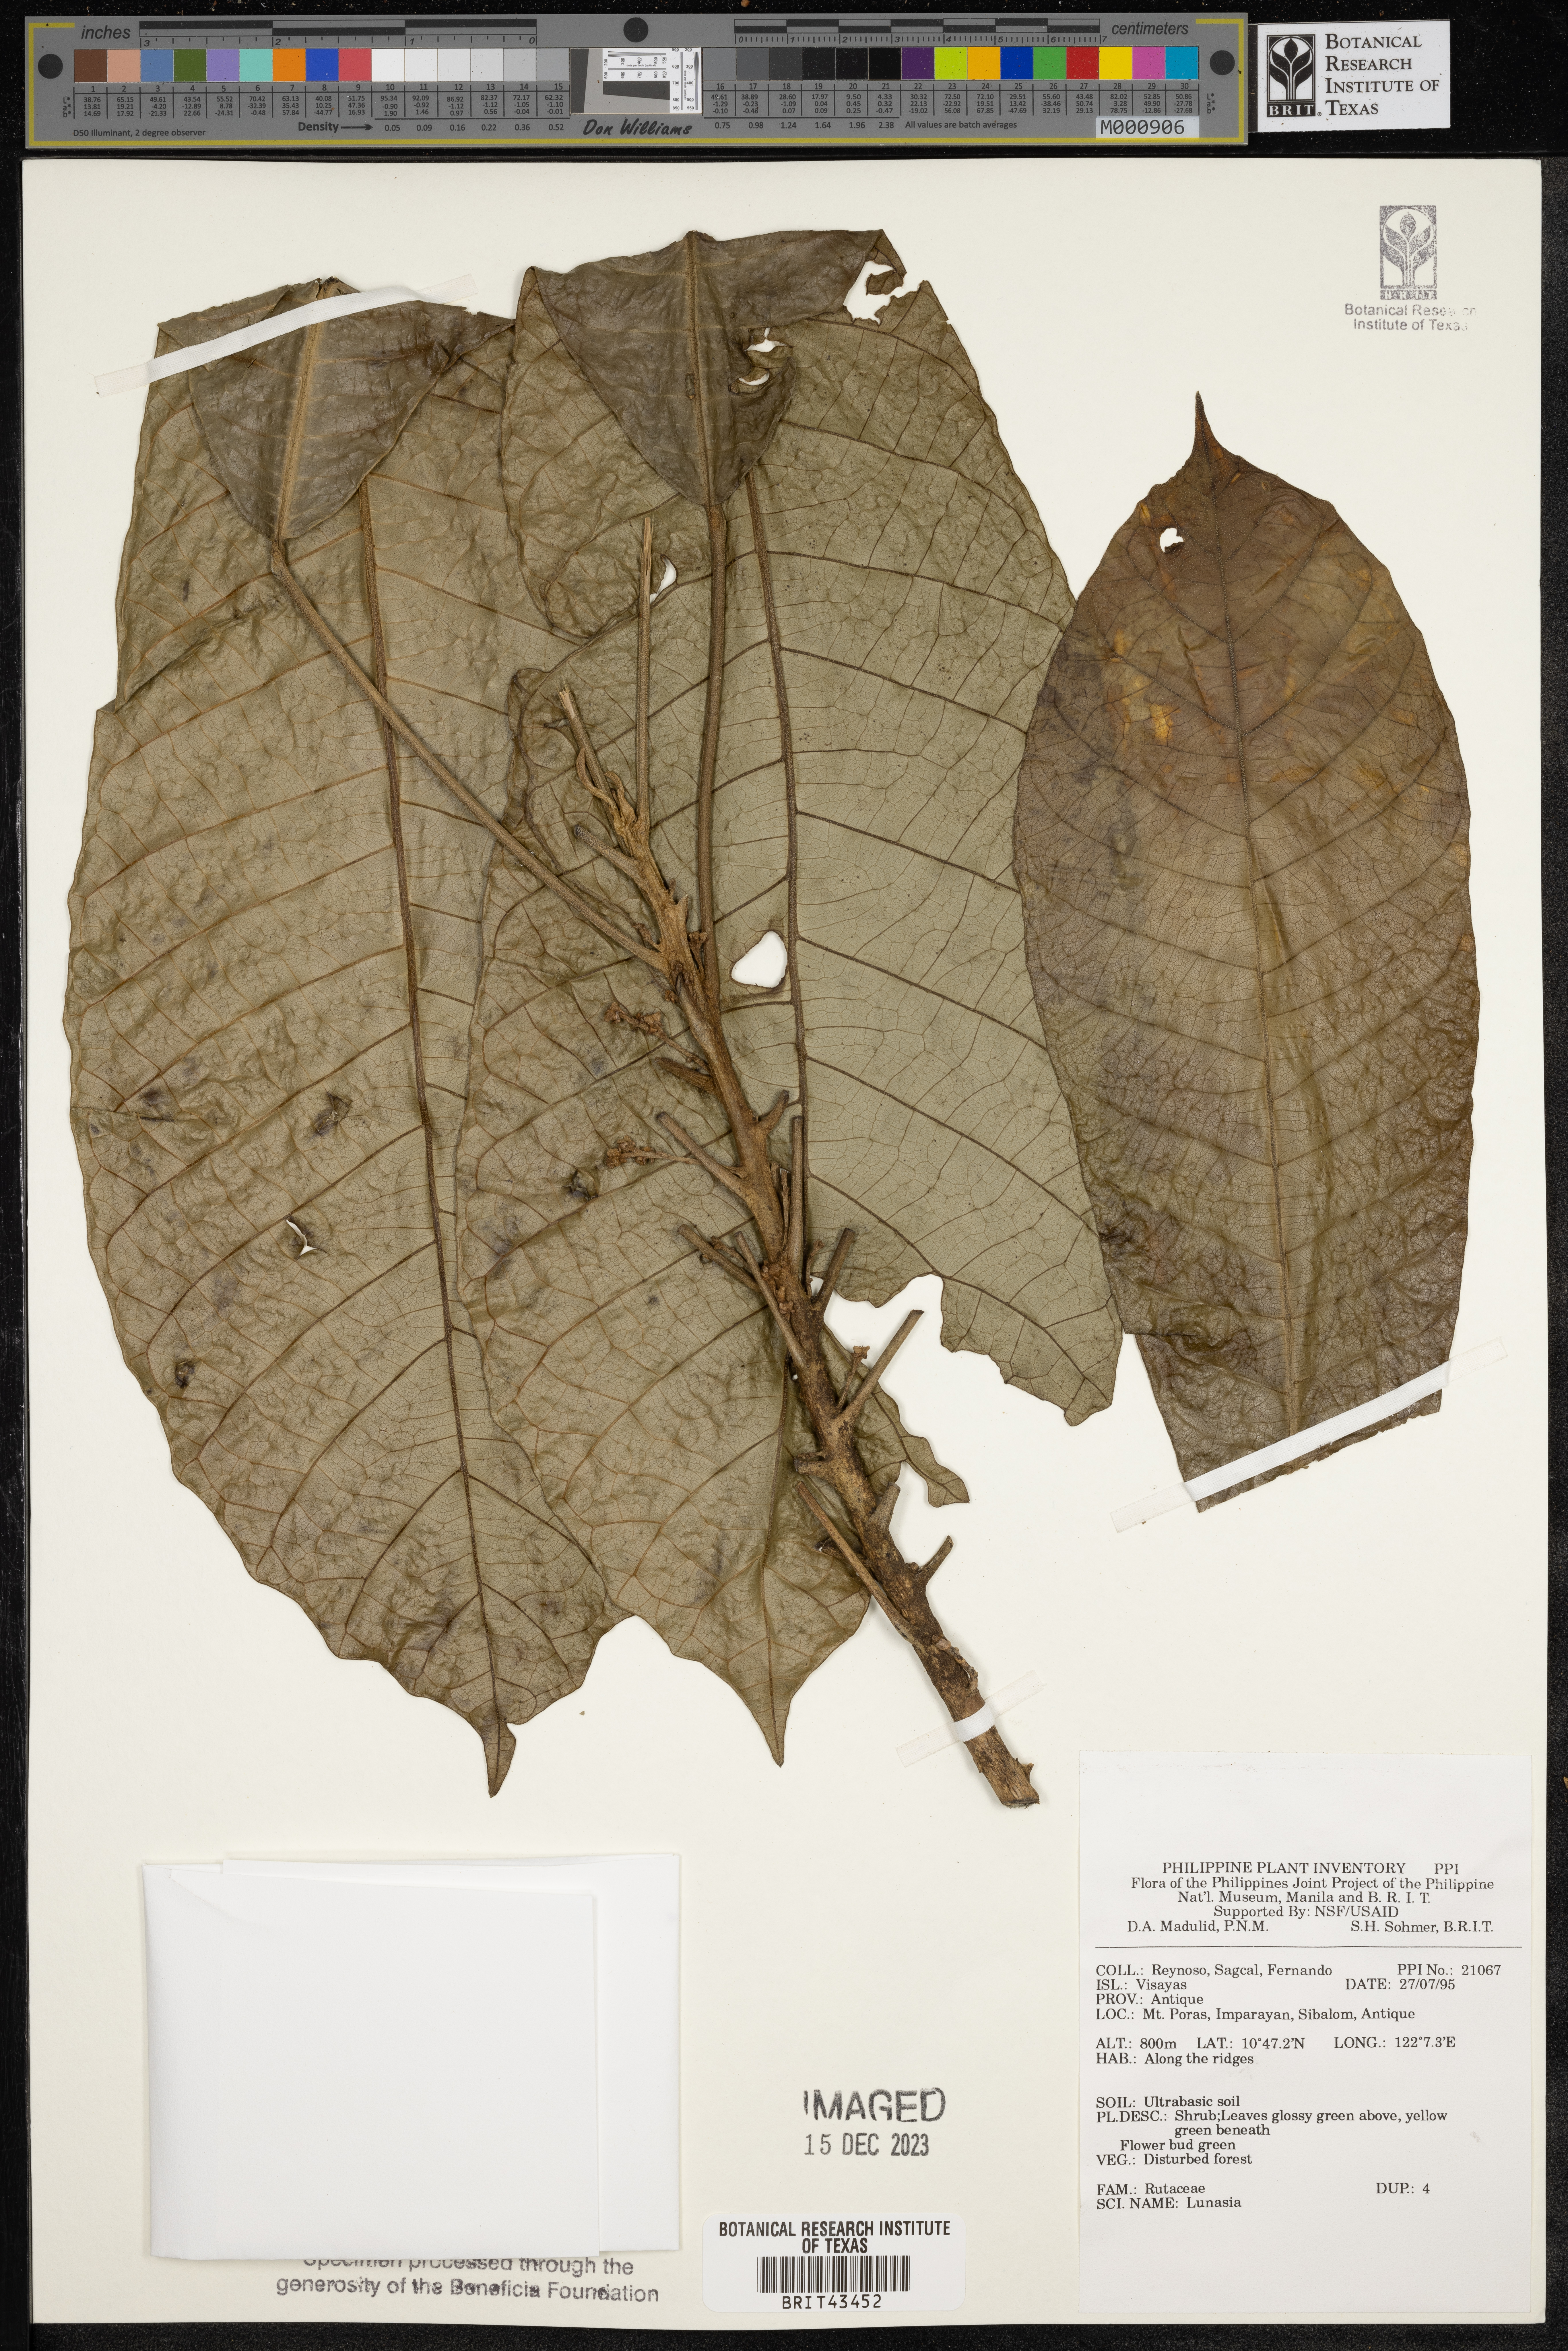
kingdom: Plantae
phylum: Tracheophyta
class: Magnoliopsida
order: Sapindales
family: Rutaceae
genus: Lunasia
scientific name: Lunasia
